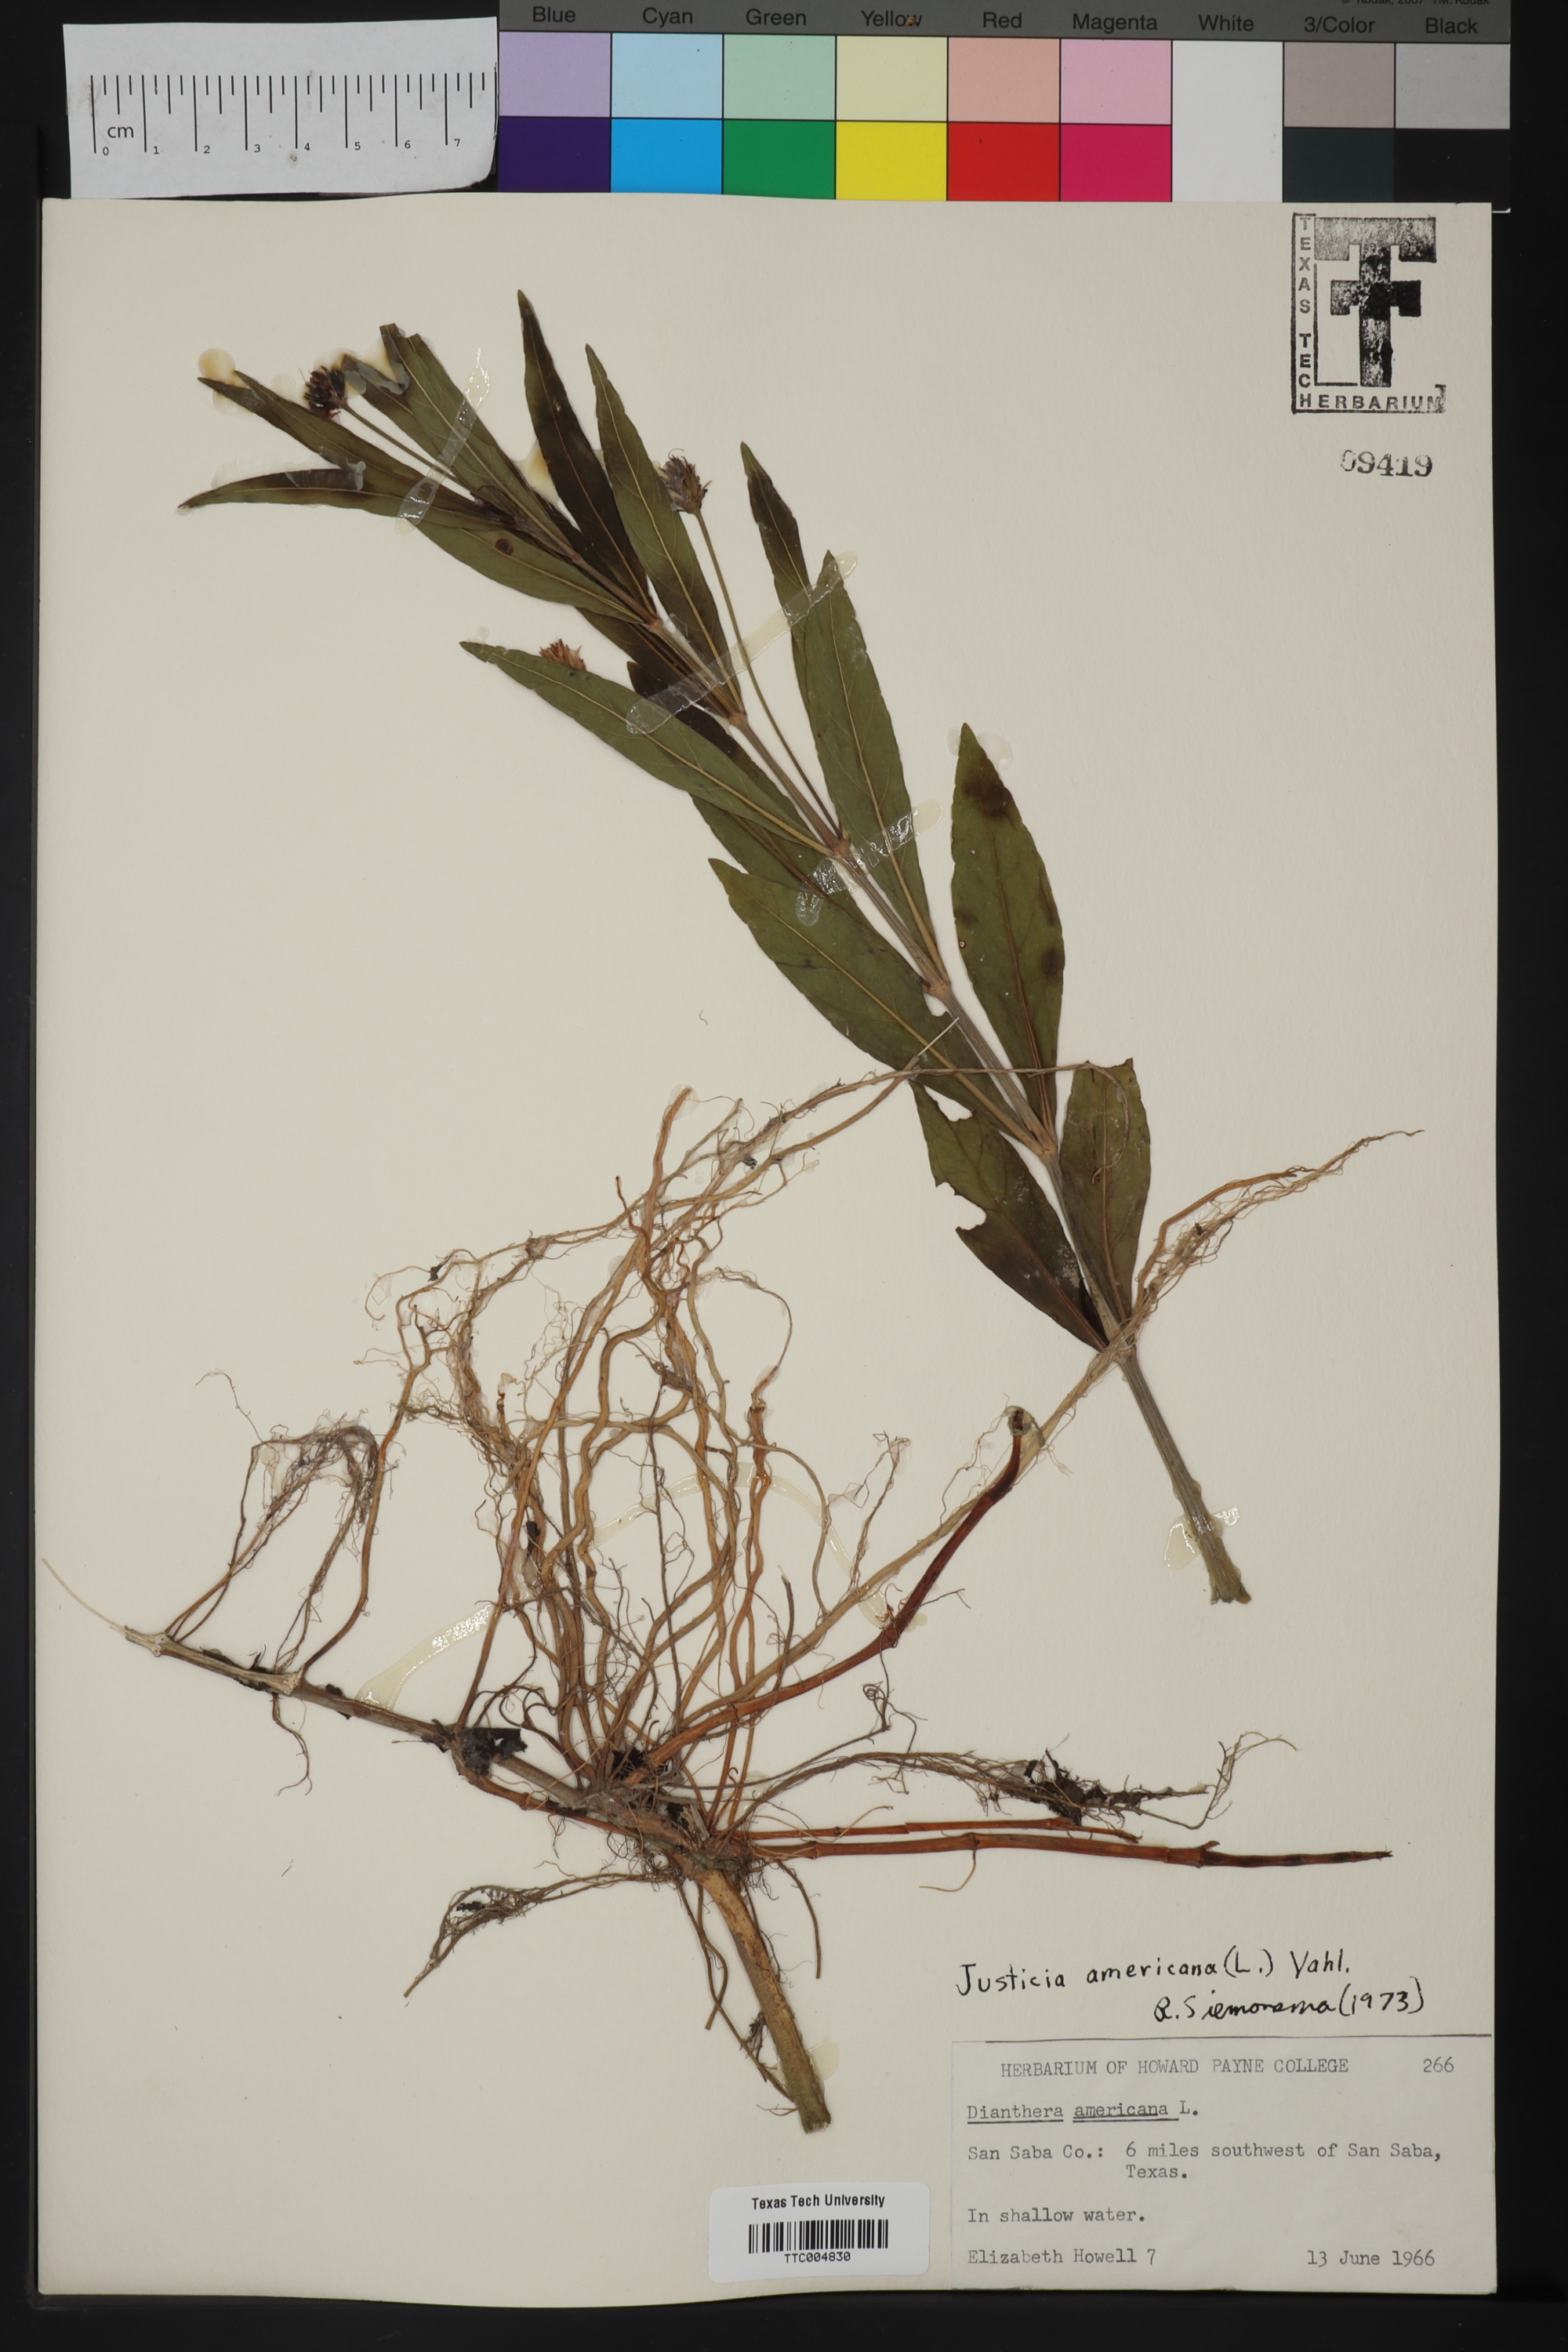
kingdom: Plantae
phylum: Tracheophyta
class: Magnoliopsida
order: Lamiales
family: Acanthaceae
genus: Rostellularia
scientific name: Rostellularia procumbens
